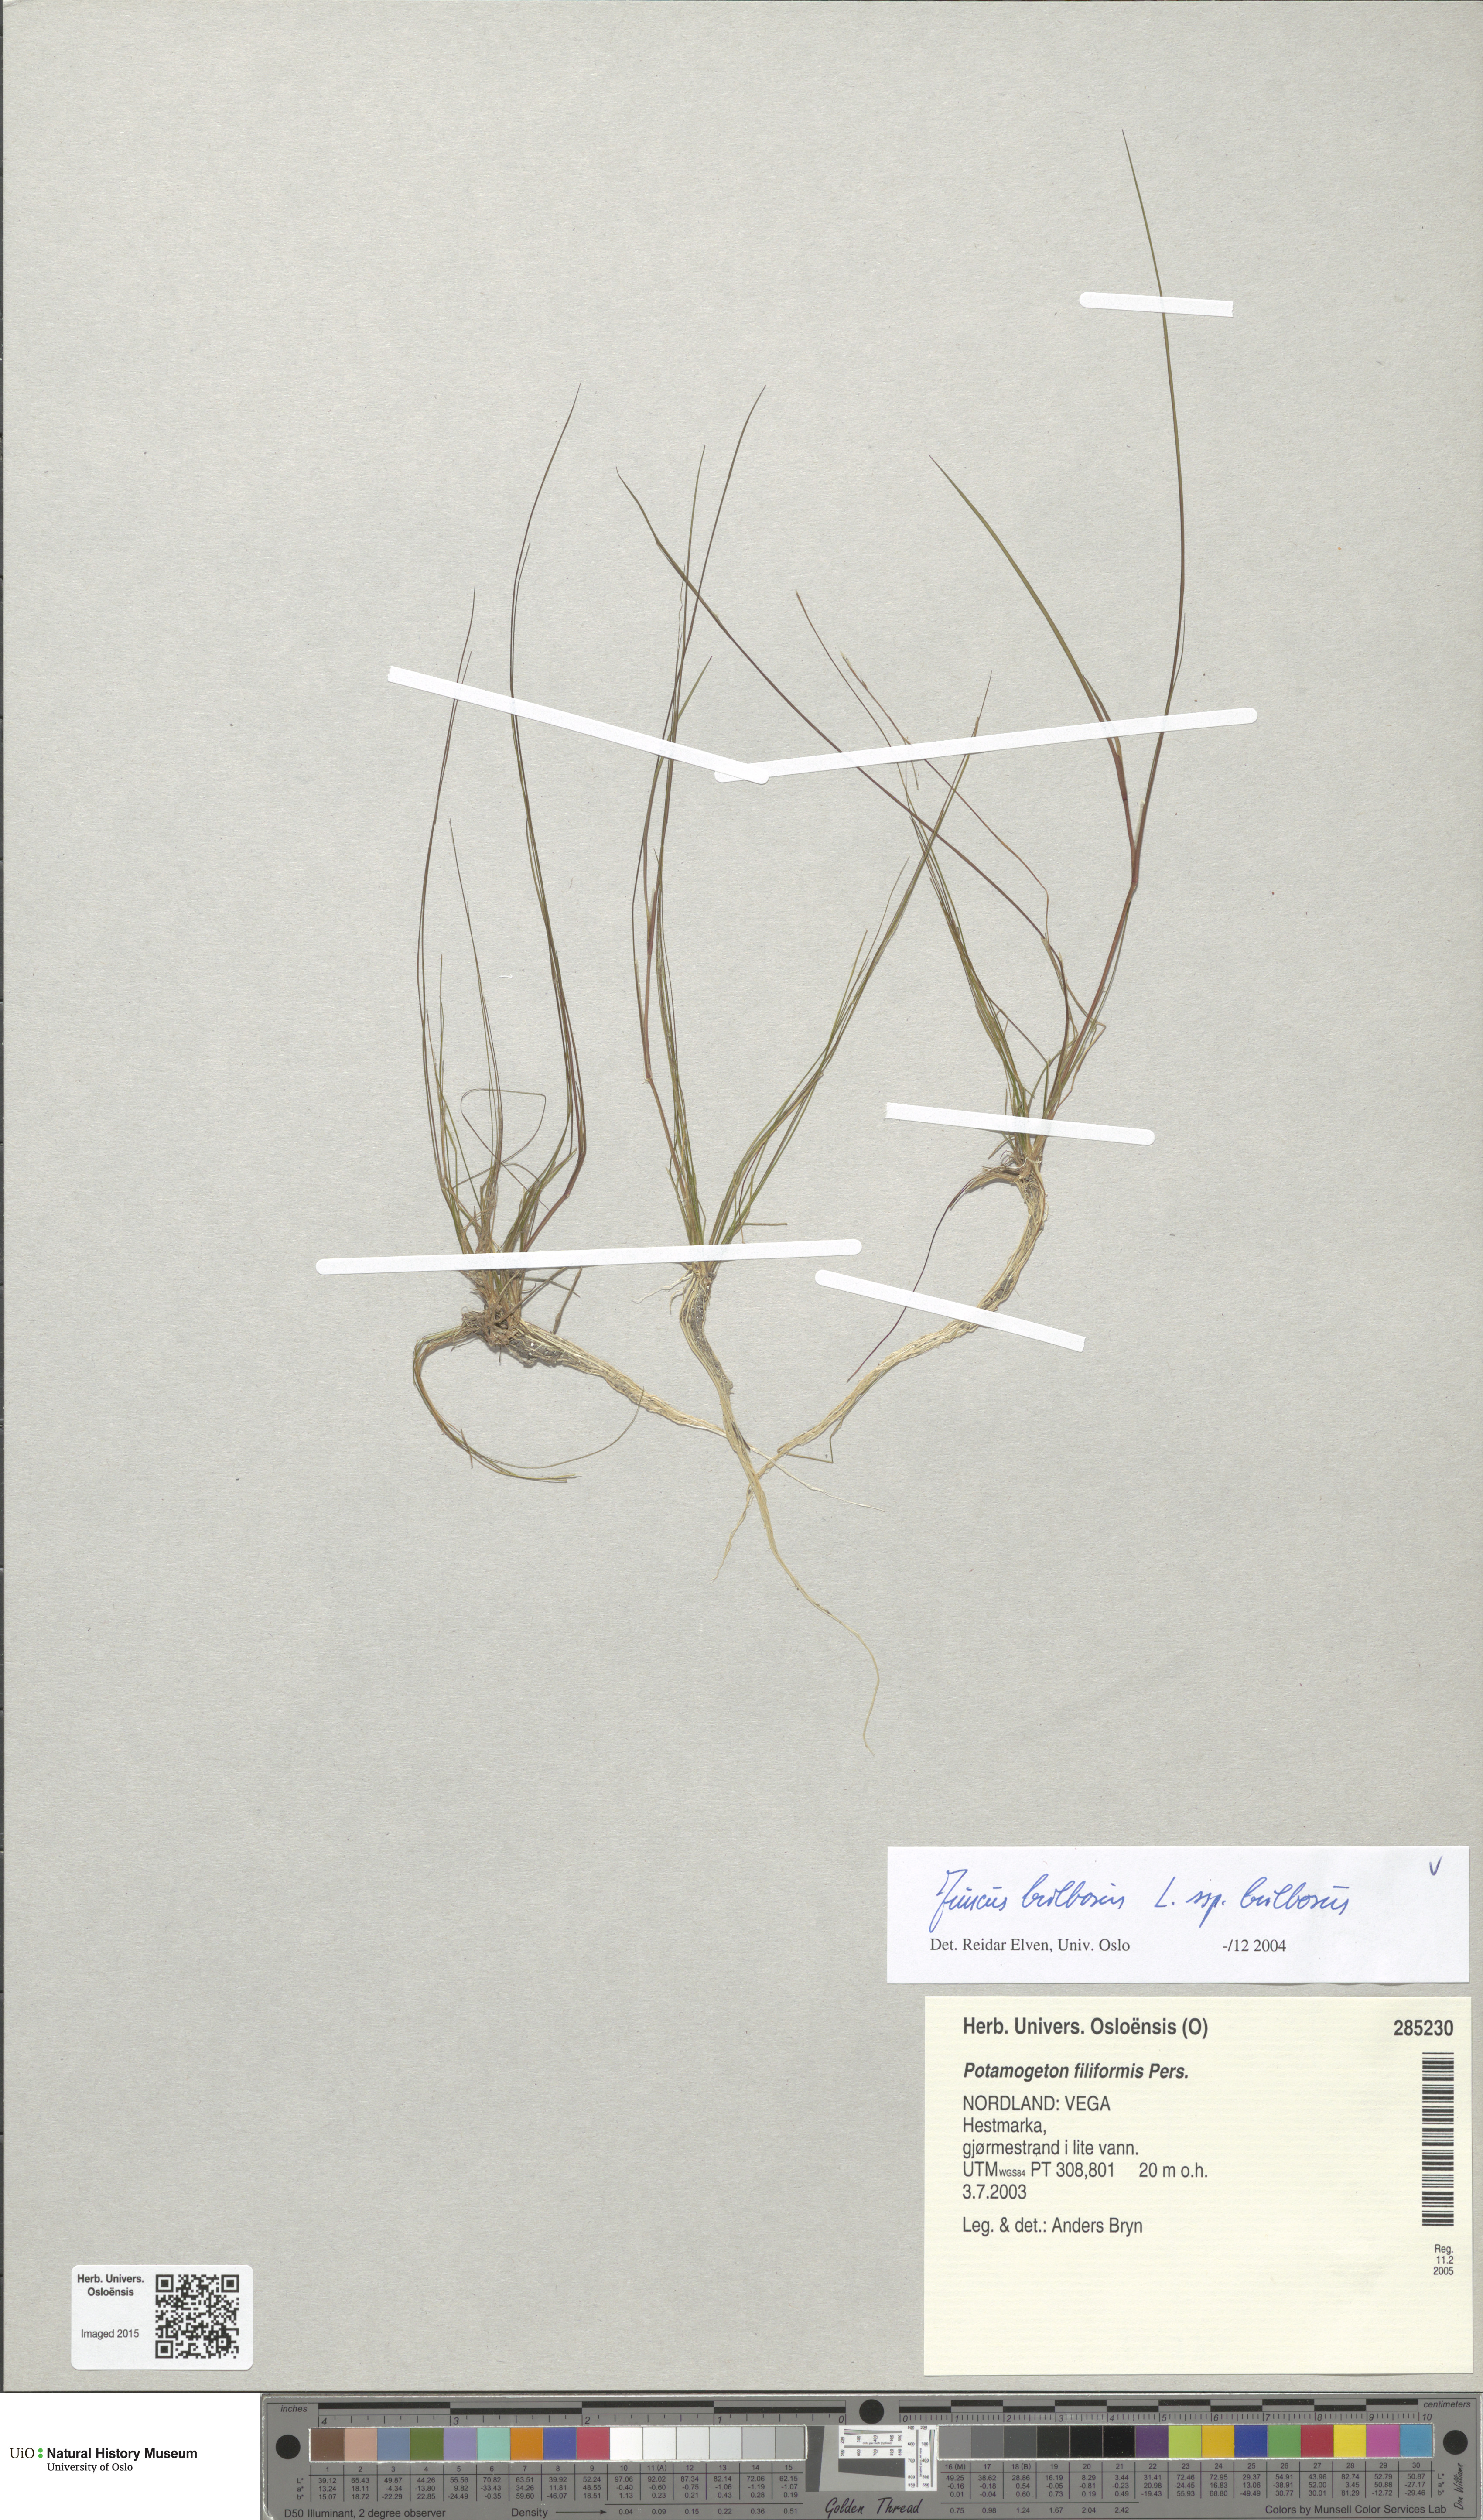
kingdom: Plantae
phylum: Tracheophyta
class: Liliopsida
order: Poales
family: Juncaceae
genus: Juncus
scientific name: Juncus bulbosus
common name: Bulbous rush
